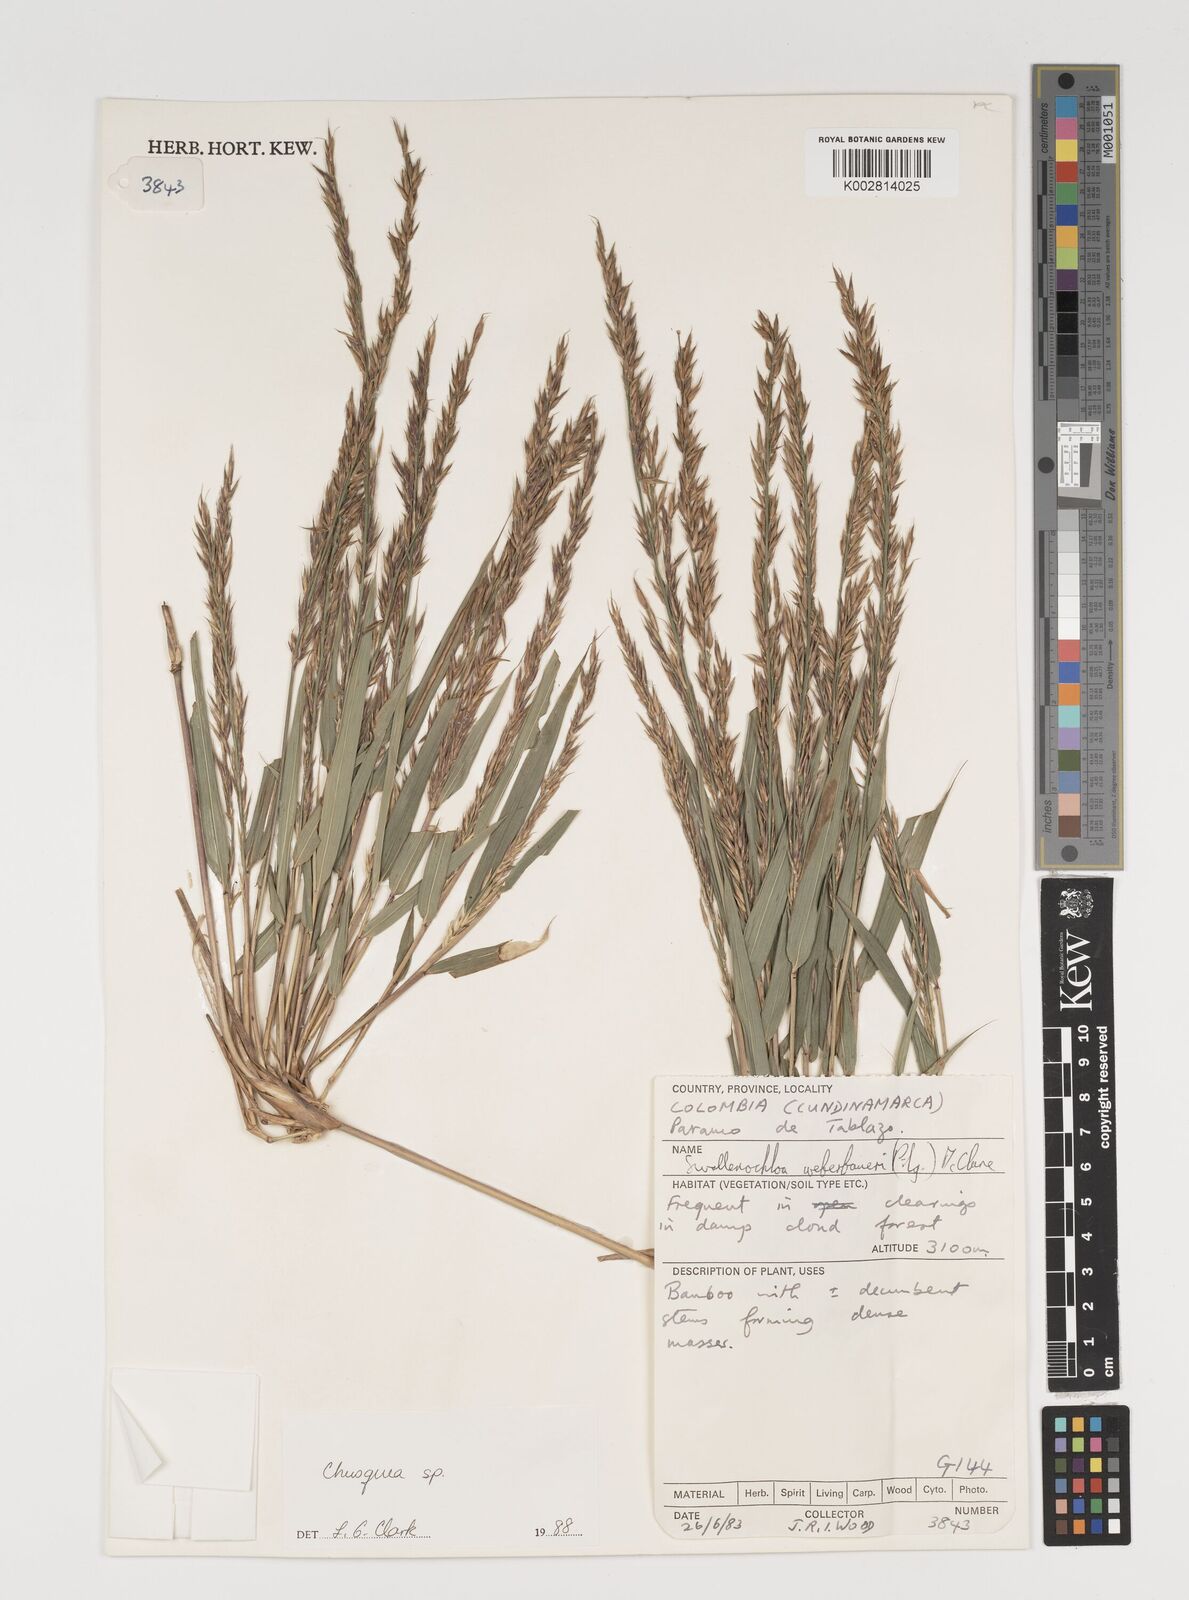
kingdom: Plantae
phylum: Tracheophyta
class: Liliopsida
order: Poales
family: Poaceae
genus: Chusquea
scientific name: Chusquea
